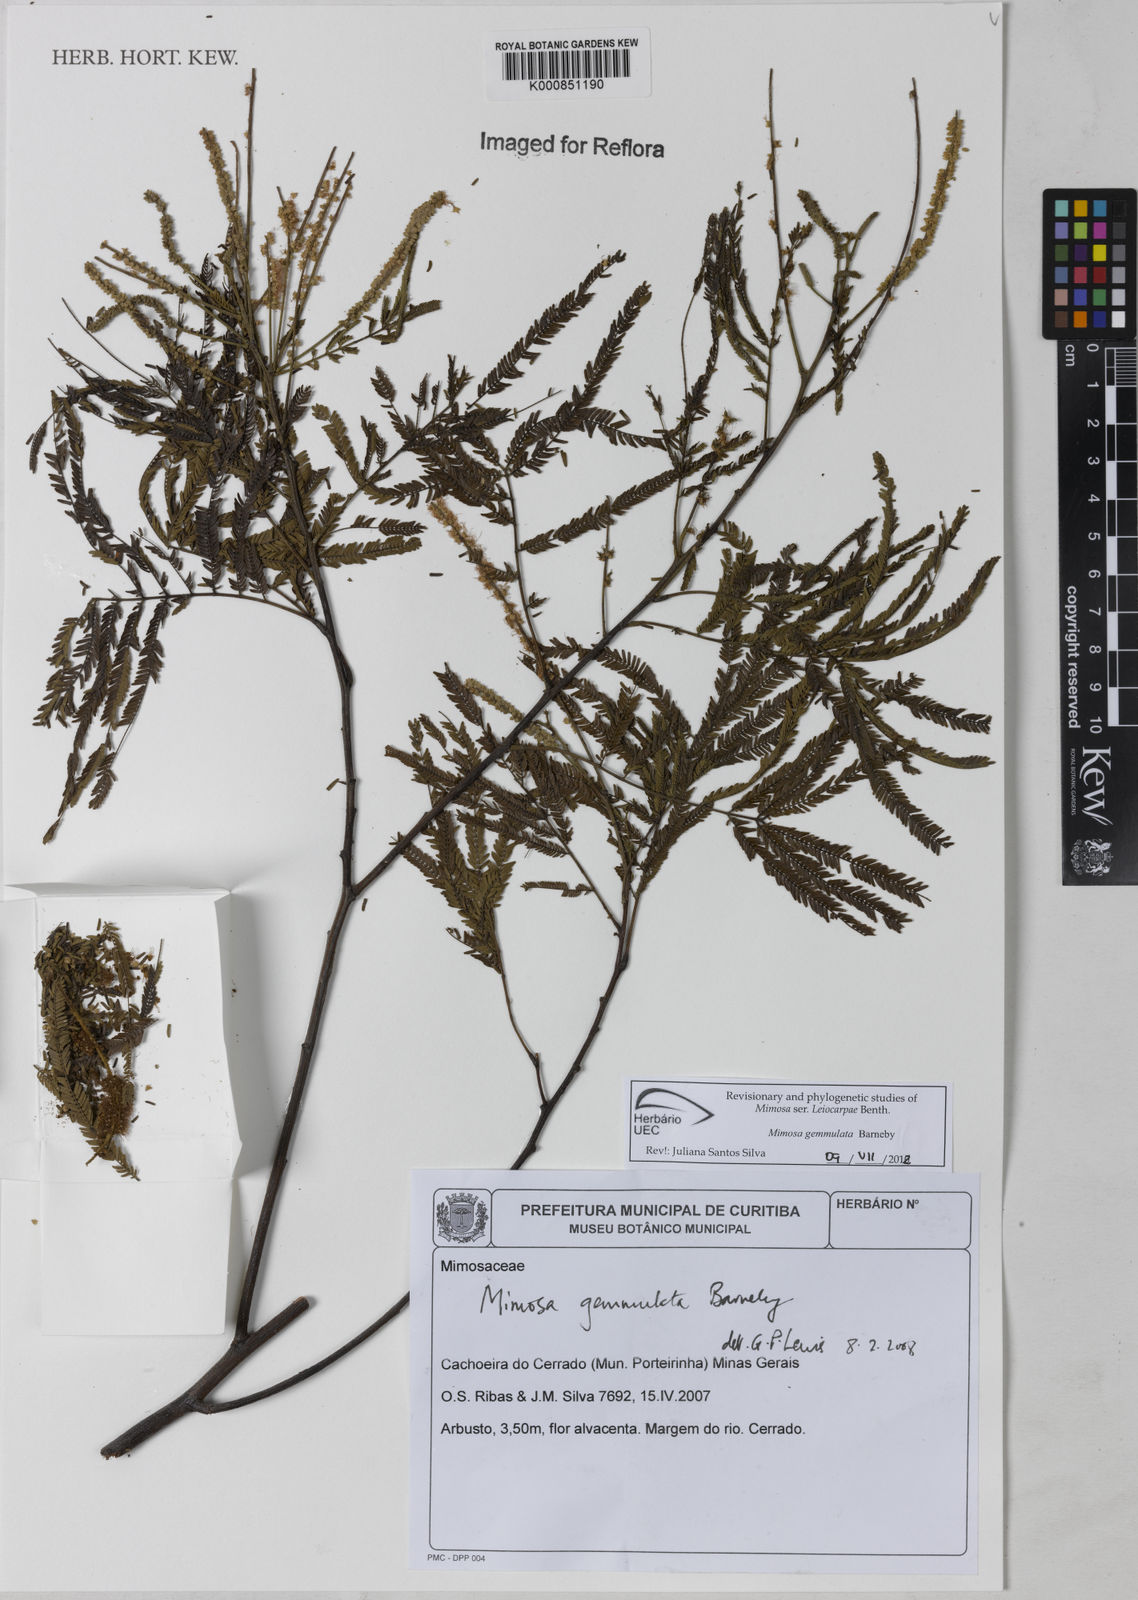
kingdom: Plantae
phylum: Tracheophyta
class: Magnoliopsida
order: Fabales
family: Fabaceae
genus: Mimosa
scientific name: Mimosa gemmulata
